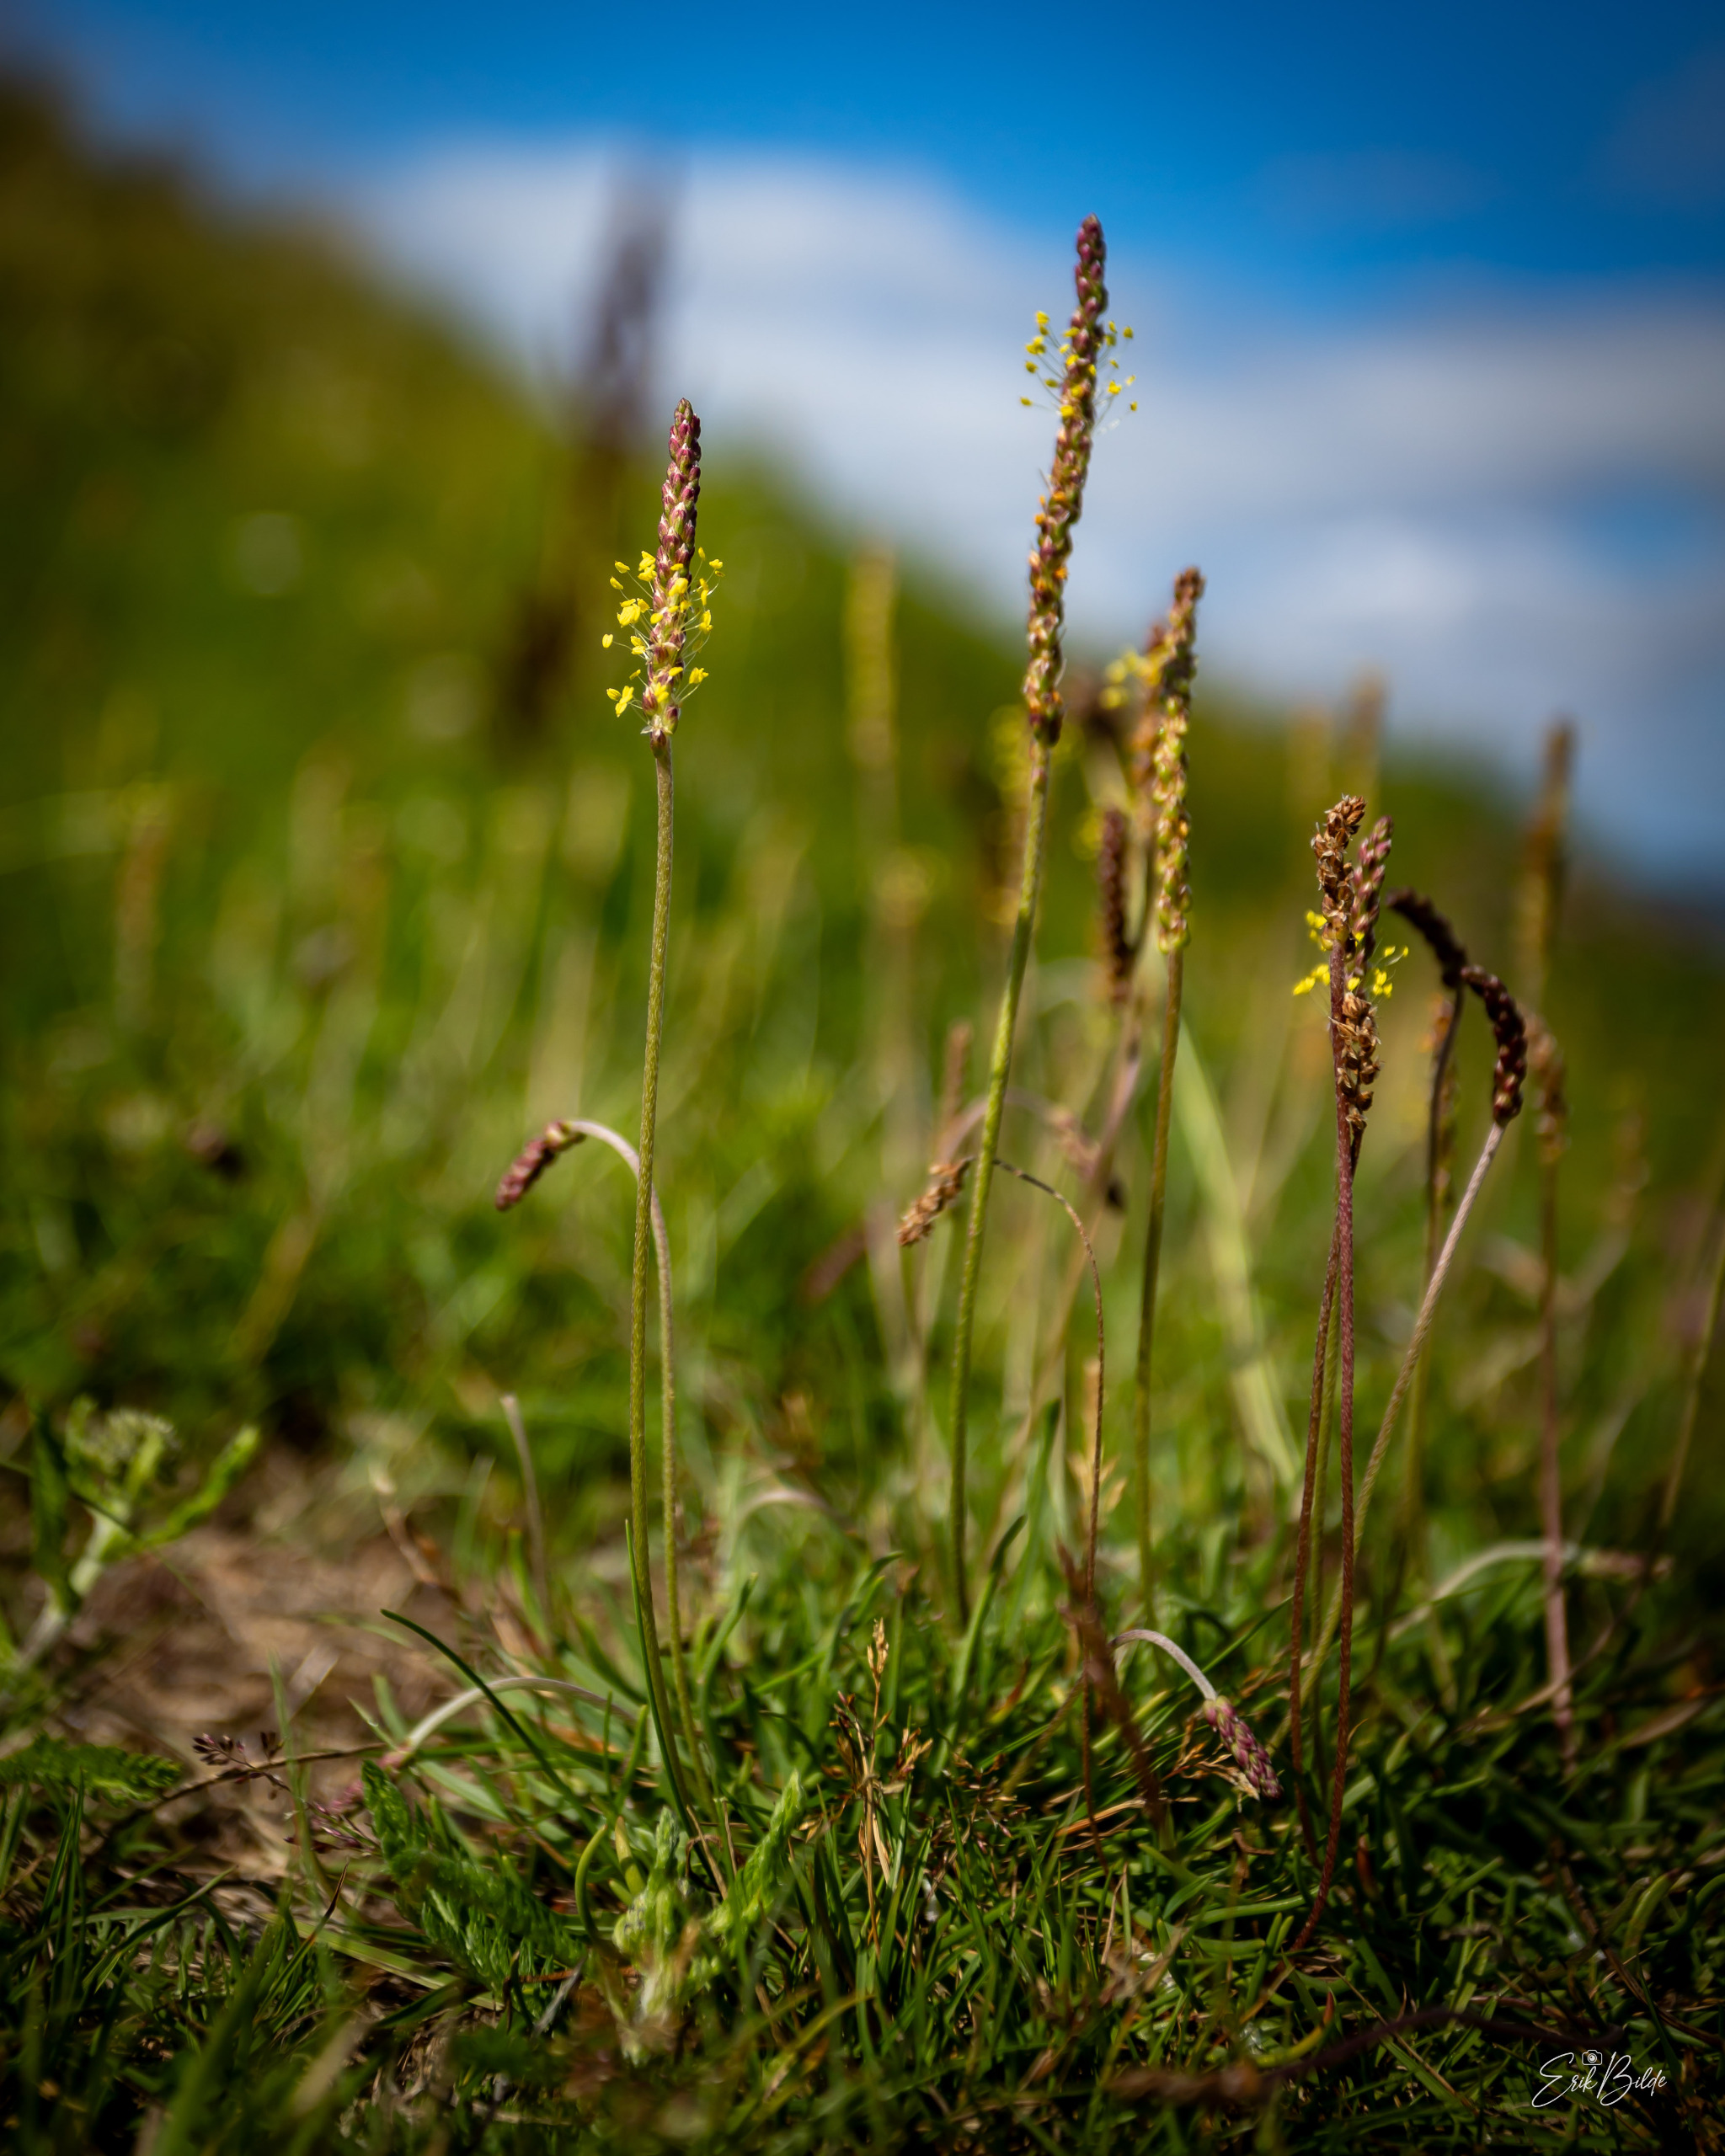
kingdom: Plantae
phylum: Tracheophyta
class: Magnoliopsida
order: Lamiales
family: Plantaginaceae
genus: Plantago
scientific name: Plantago maritima
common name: Strand-vejbred
